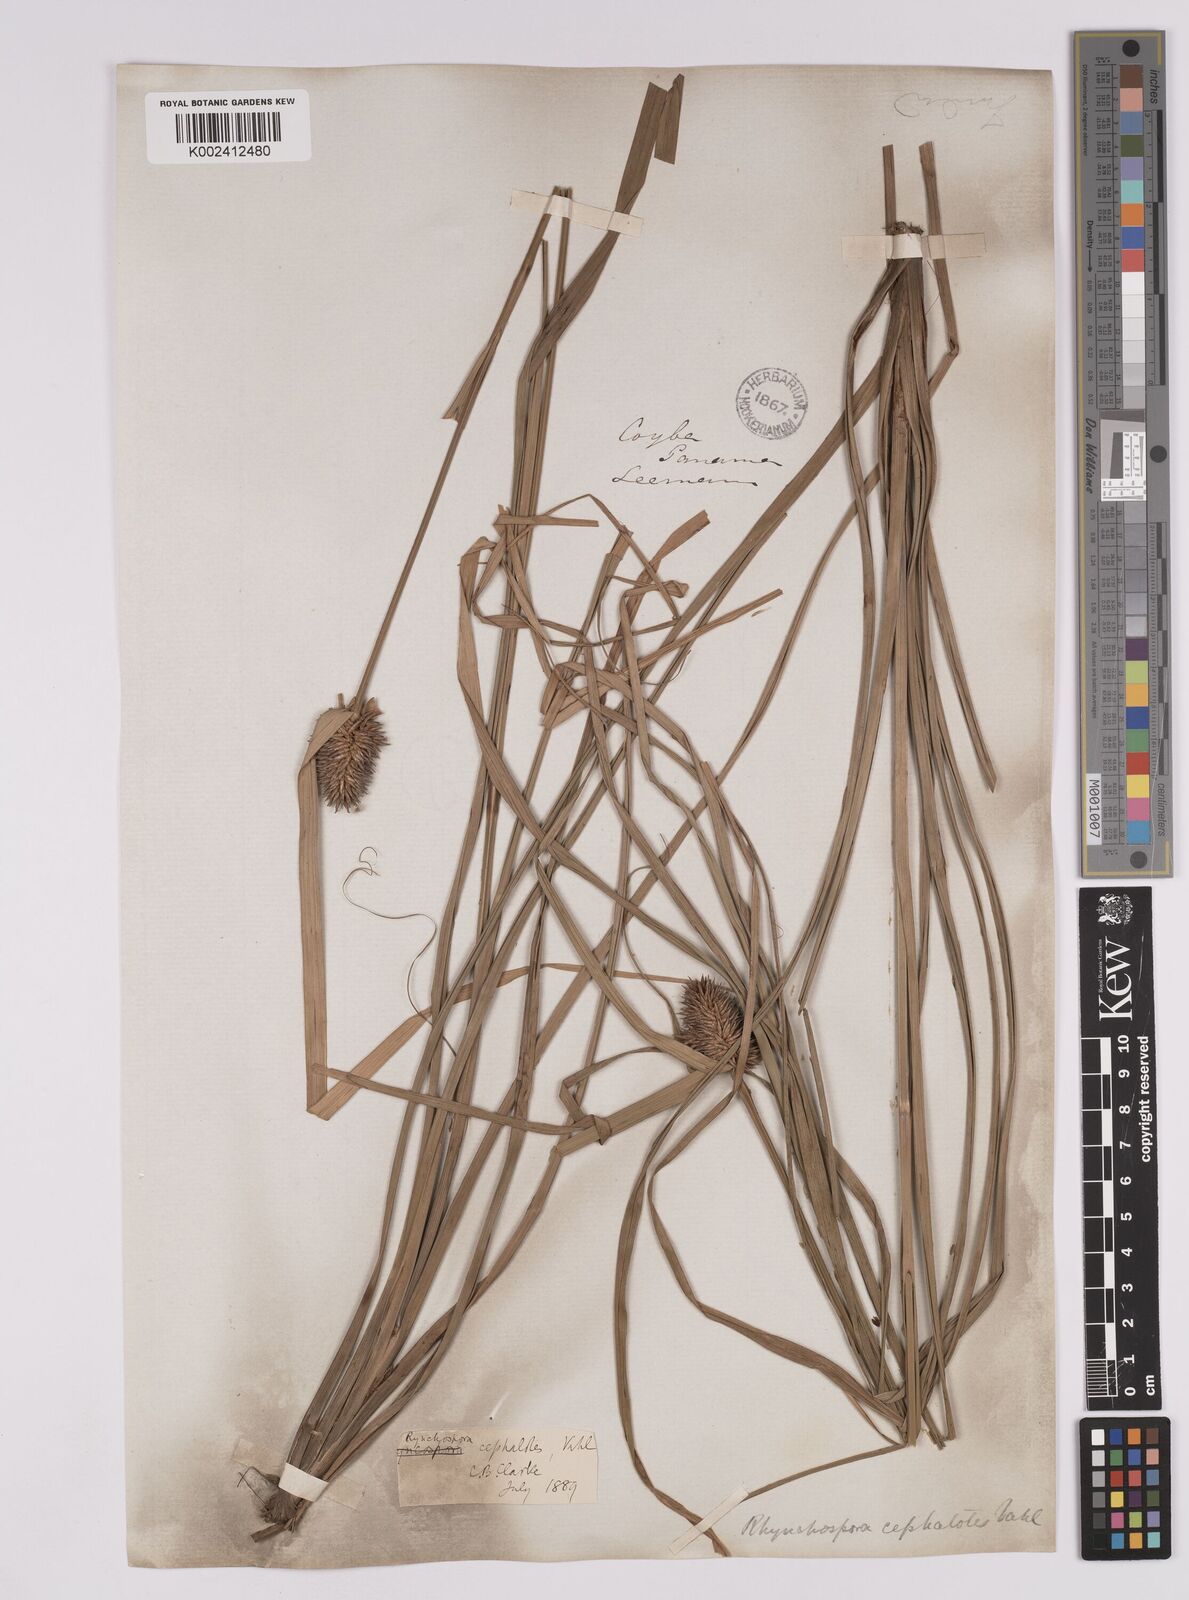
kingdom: Plantae
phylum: Tracheophyta
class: Liliopsida
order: Poales
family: Cyperaceae
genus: Rhynchospora
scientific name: Rhynchospora cephalotes
